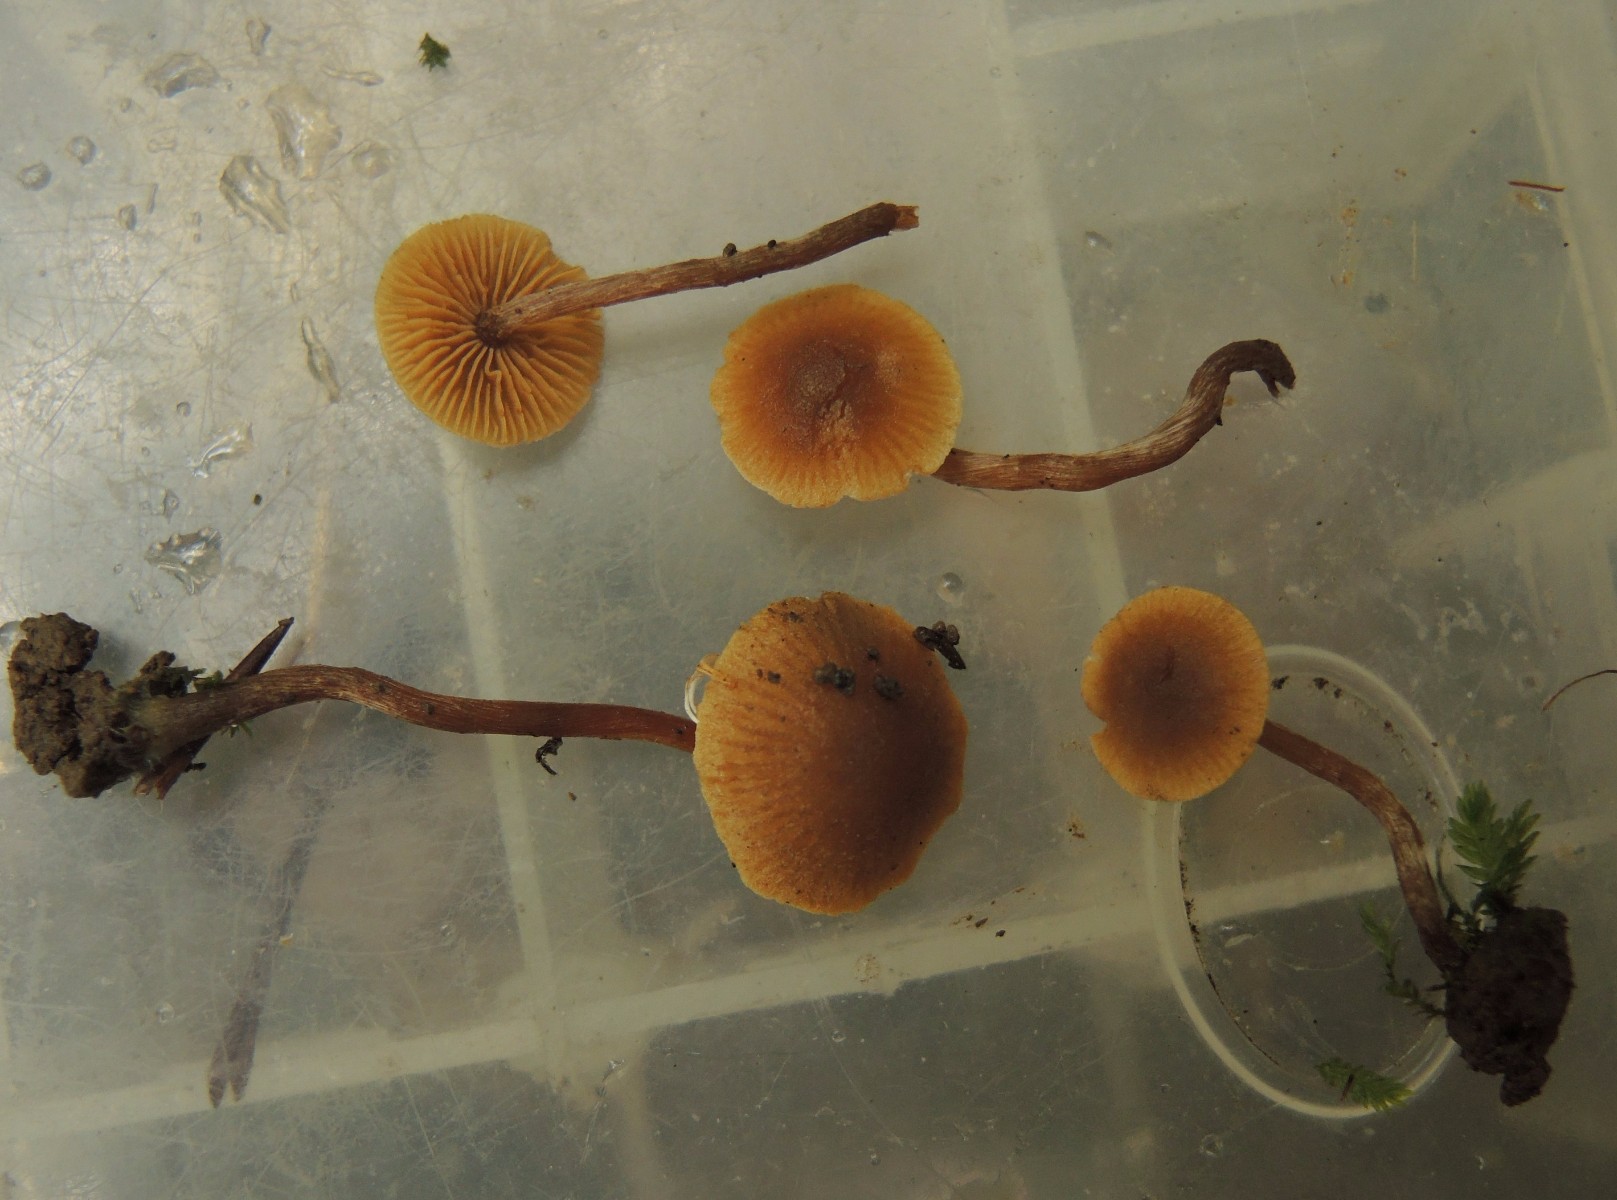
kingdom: Fungi
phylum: Basidiomycota
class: Agaricomycetes
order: Agaricales
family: Hymenogastraceae
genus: Alnicola
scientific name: Alnicola xanthophylla
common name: gulbladet knaphat
